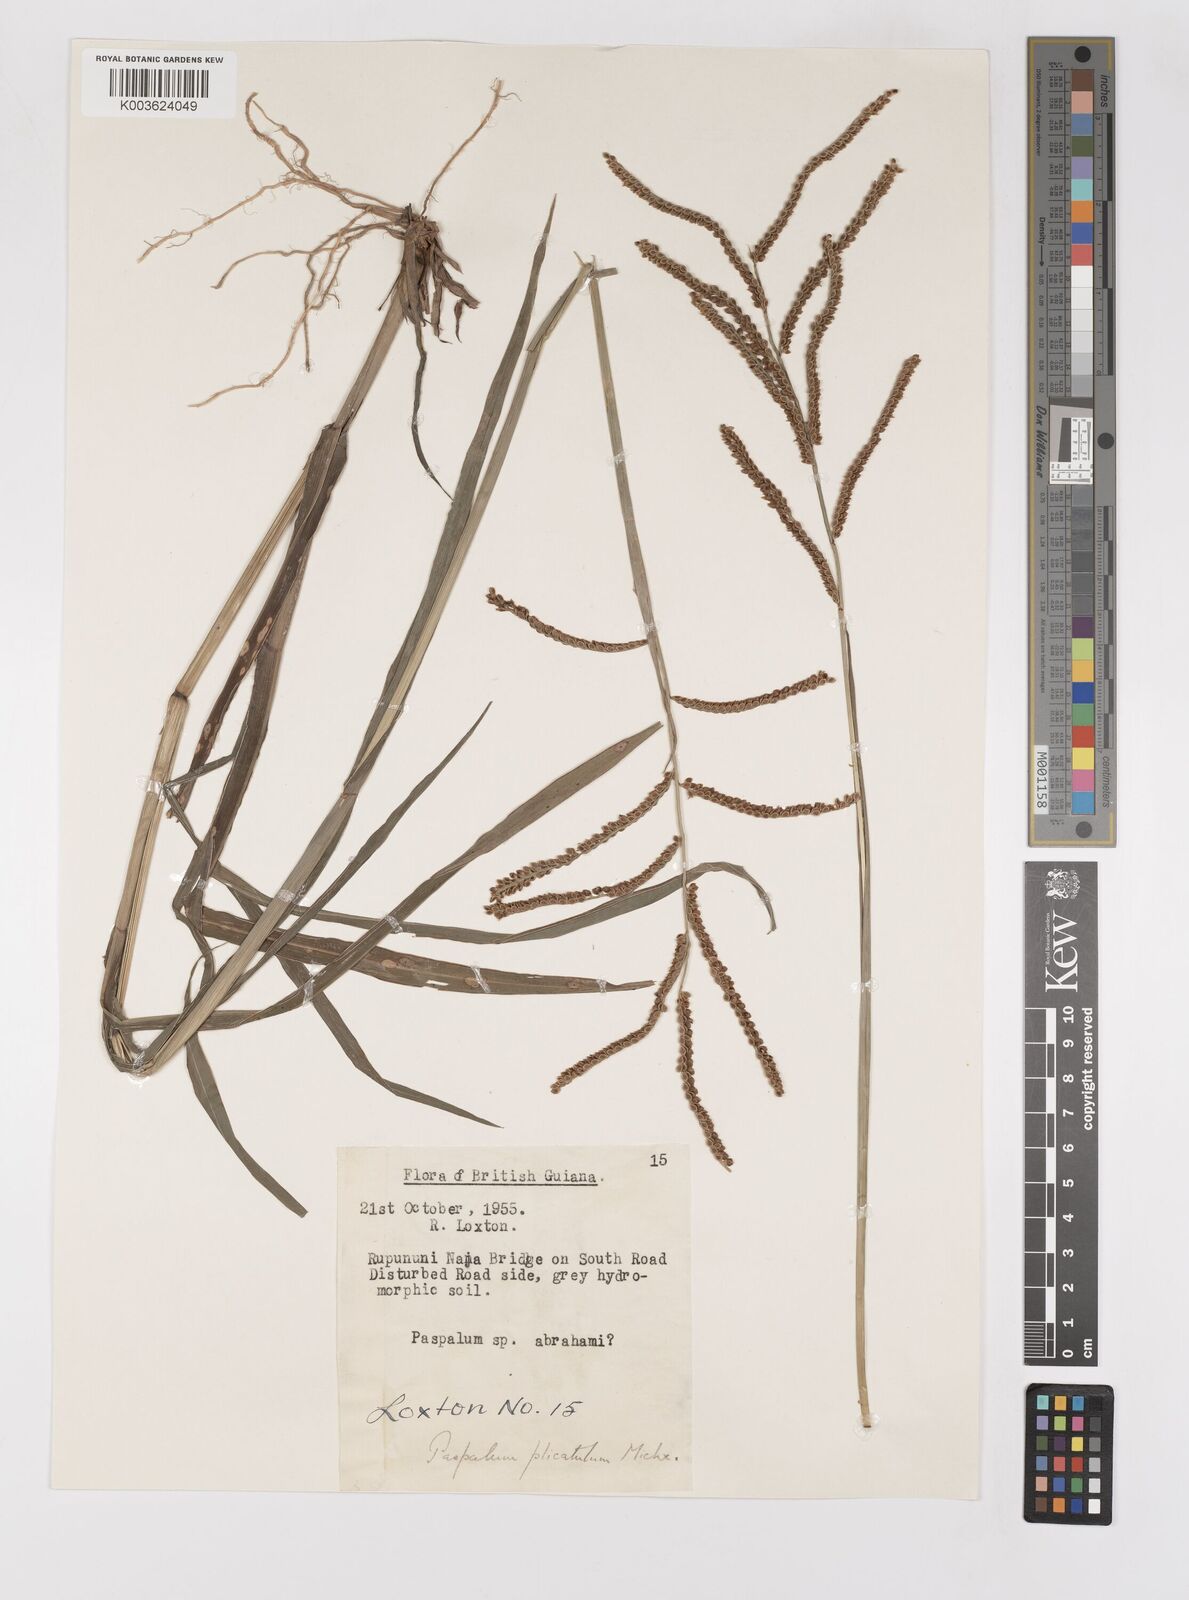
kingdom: Plantae
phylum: Tracheophyta
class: Liliopsida
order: Poales
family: Poaceae
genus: Paspalum
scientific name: Paspalum plicatulum
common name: Top paspalum
